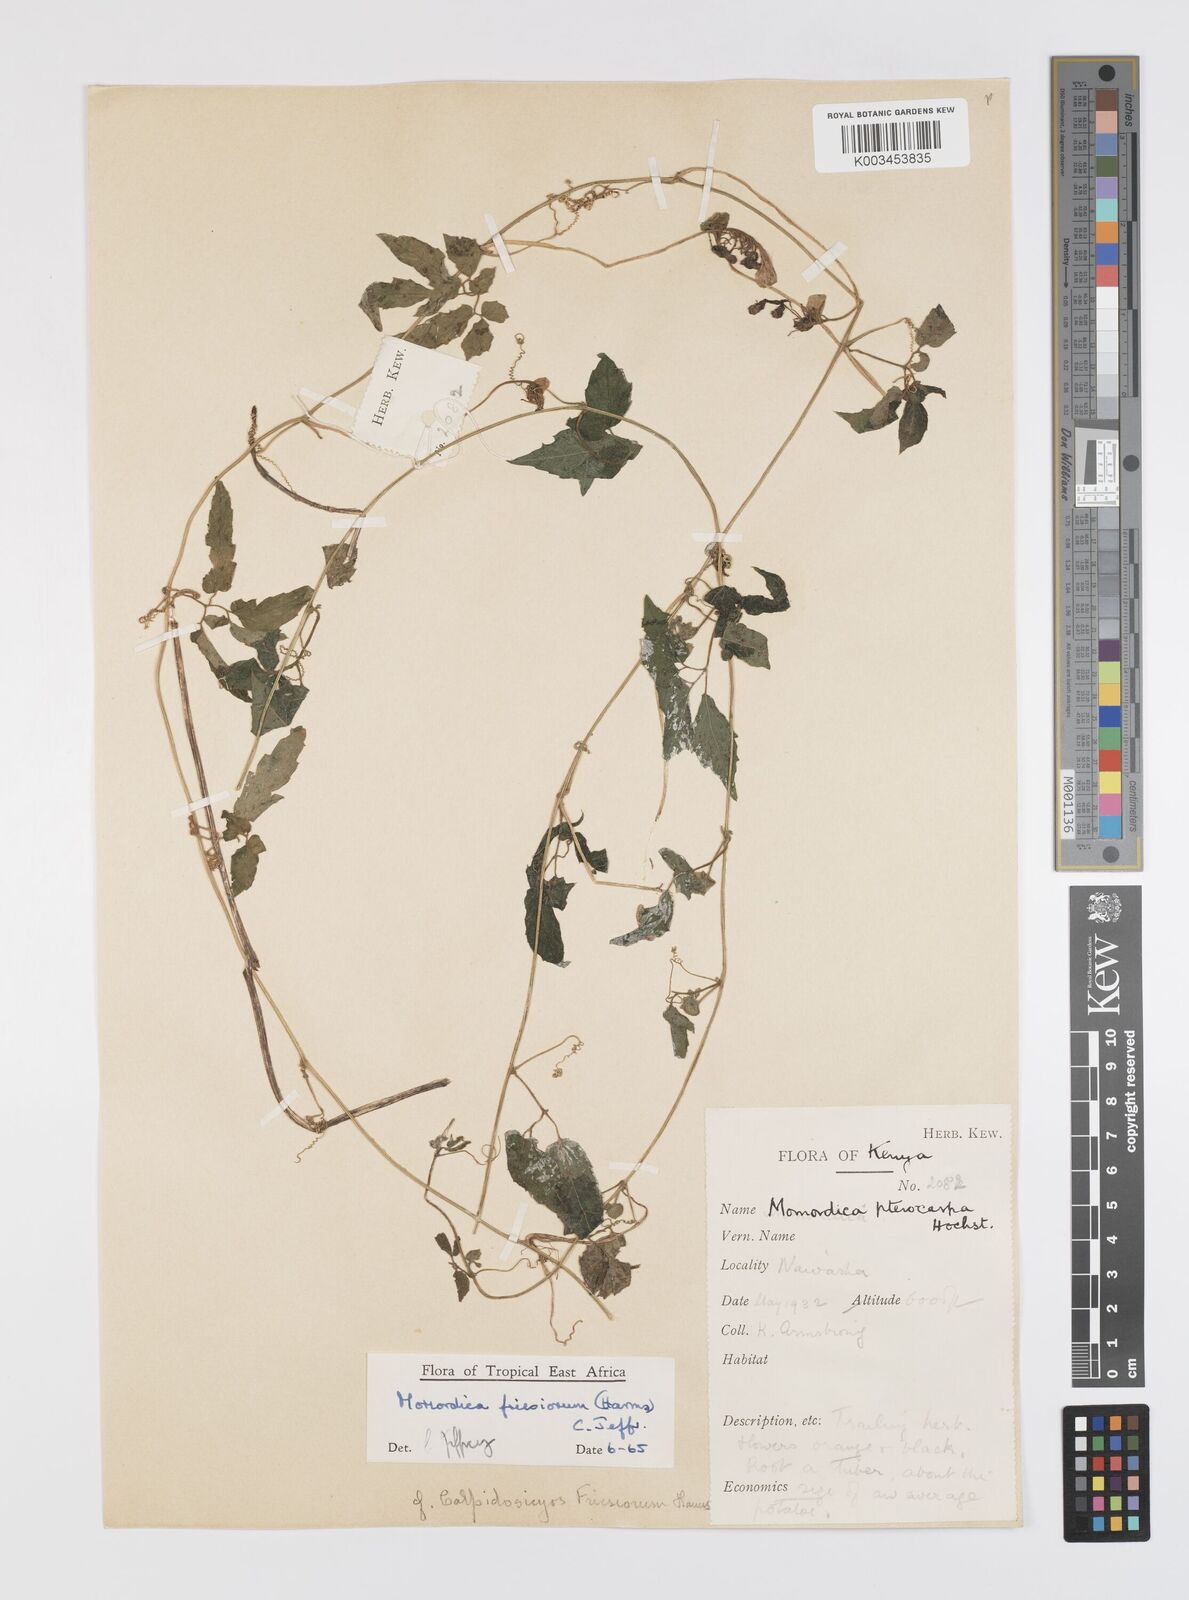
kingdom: Plantae
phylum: Tracheophyta
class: Magnoliopsida
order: Cucurbitales
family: Cucurbitaceae
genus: Momordica
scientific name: Momordica friesiorum
